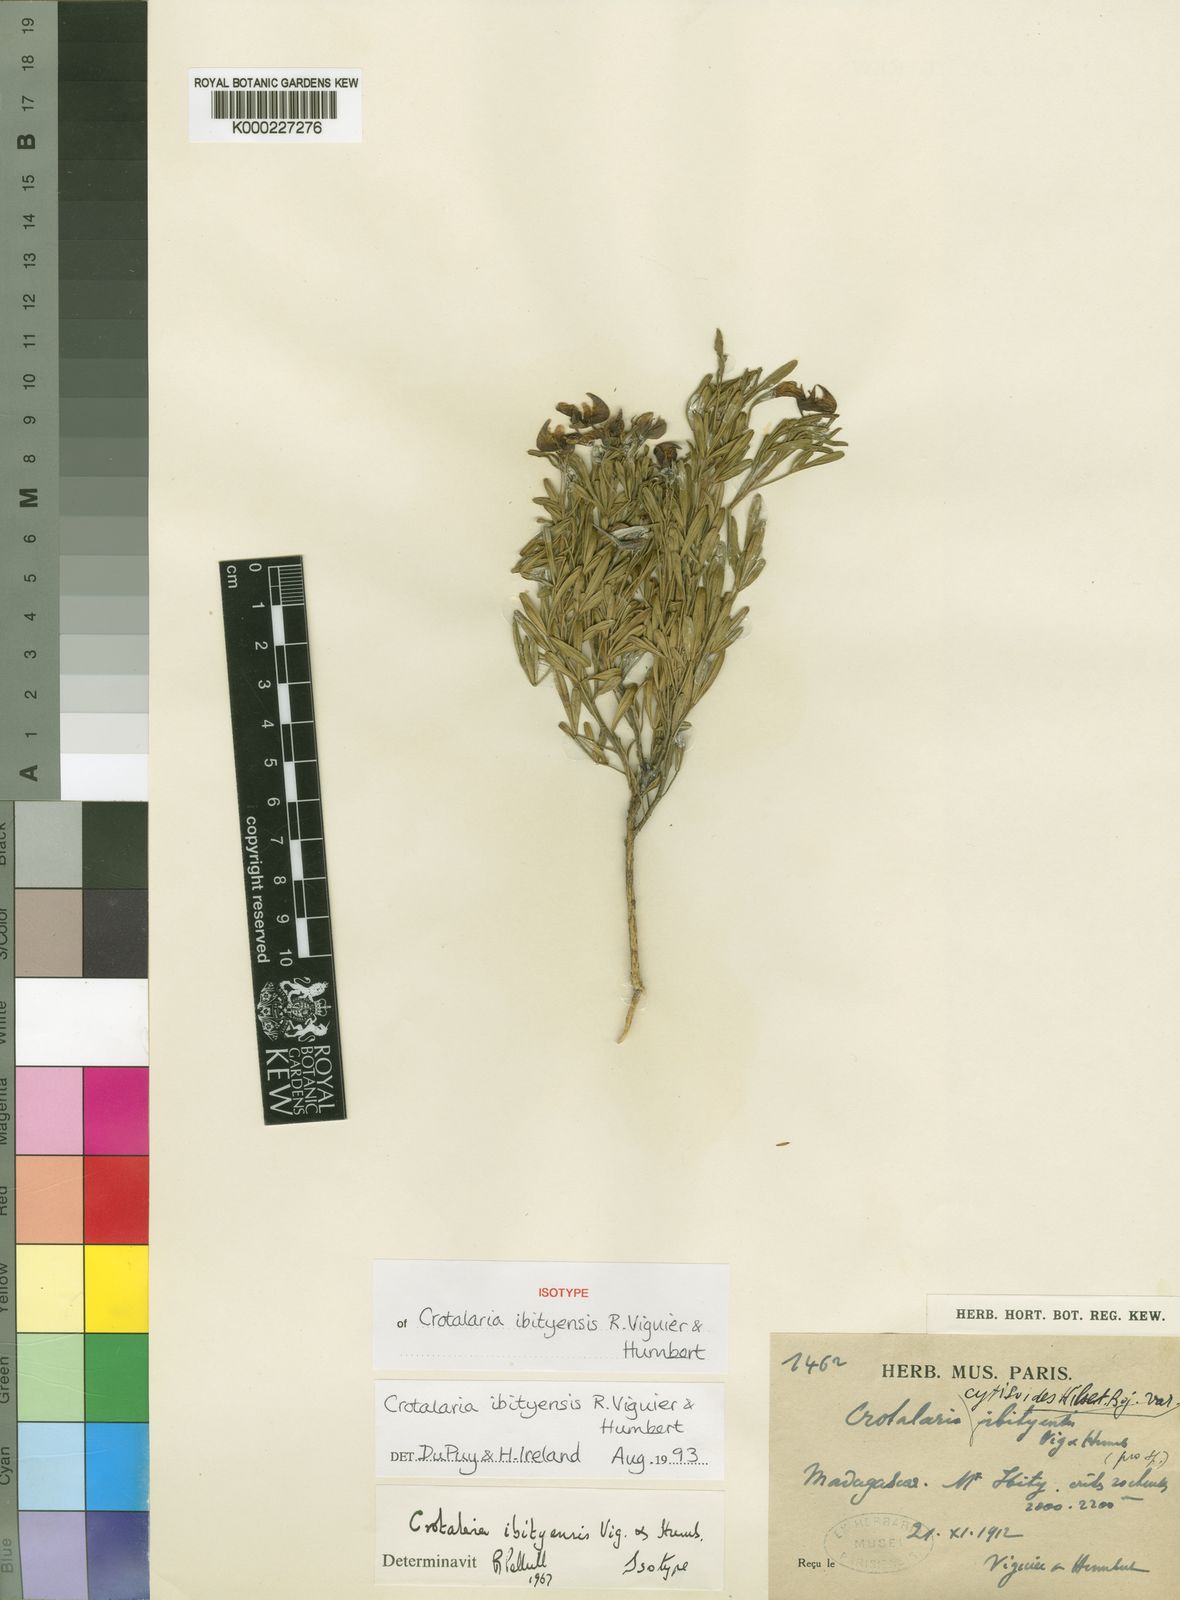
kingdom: Plantae
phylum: Tracheophyta
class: Magnoliopsida
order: Fabales
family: Fabaceae
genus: Crotalaria
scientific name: Crotalaria ibityensis
